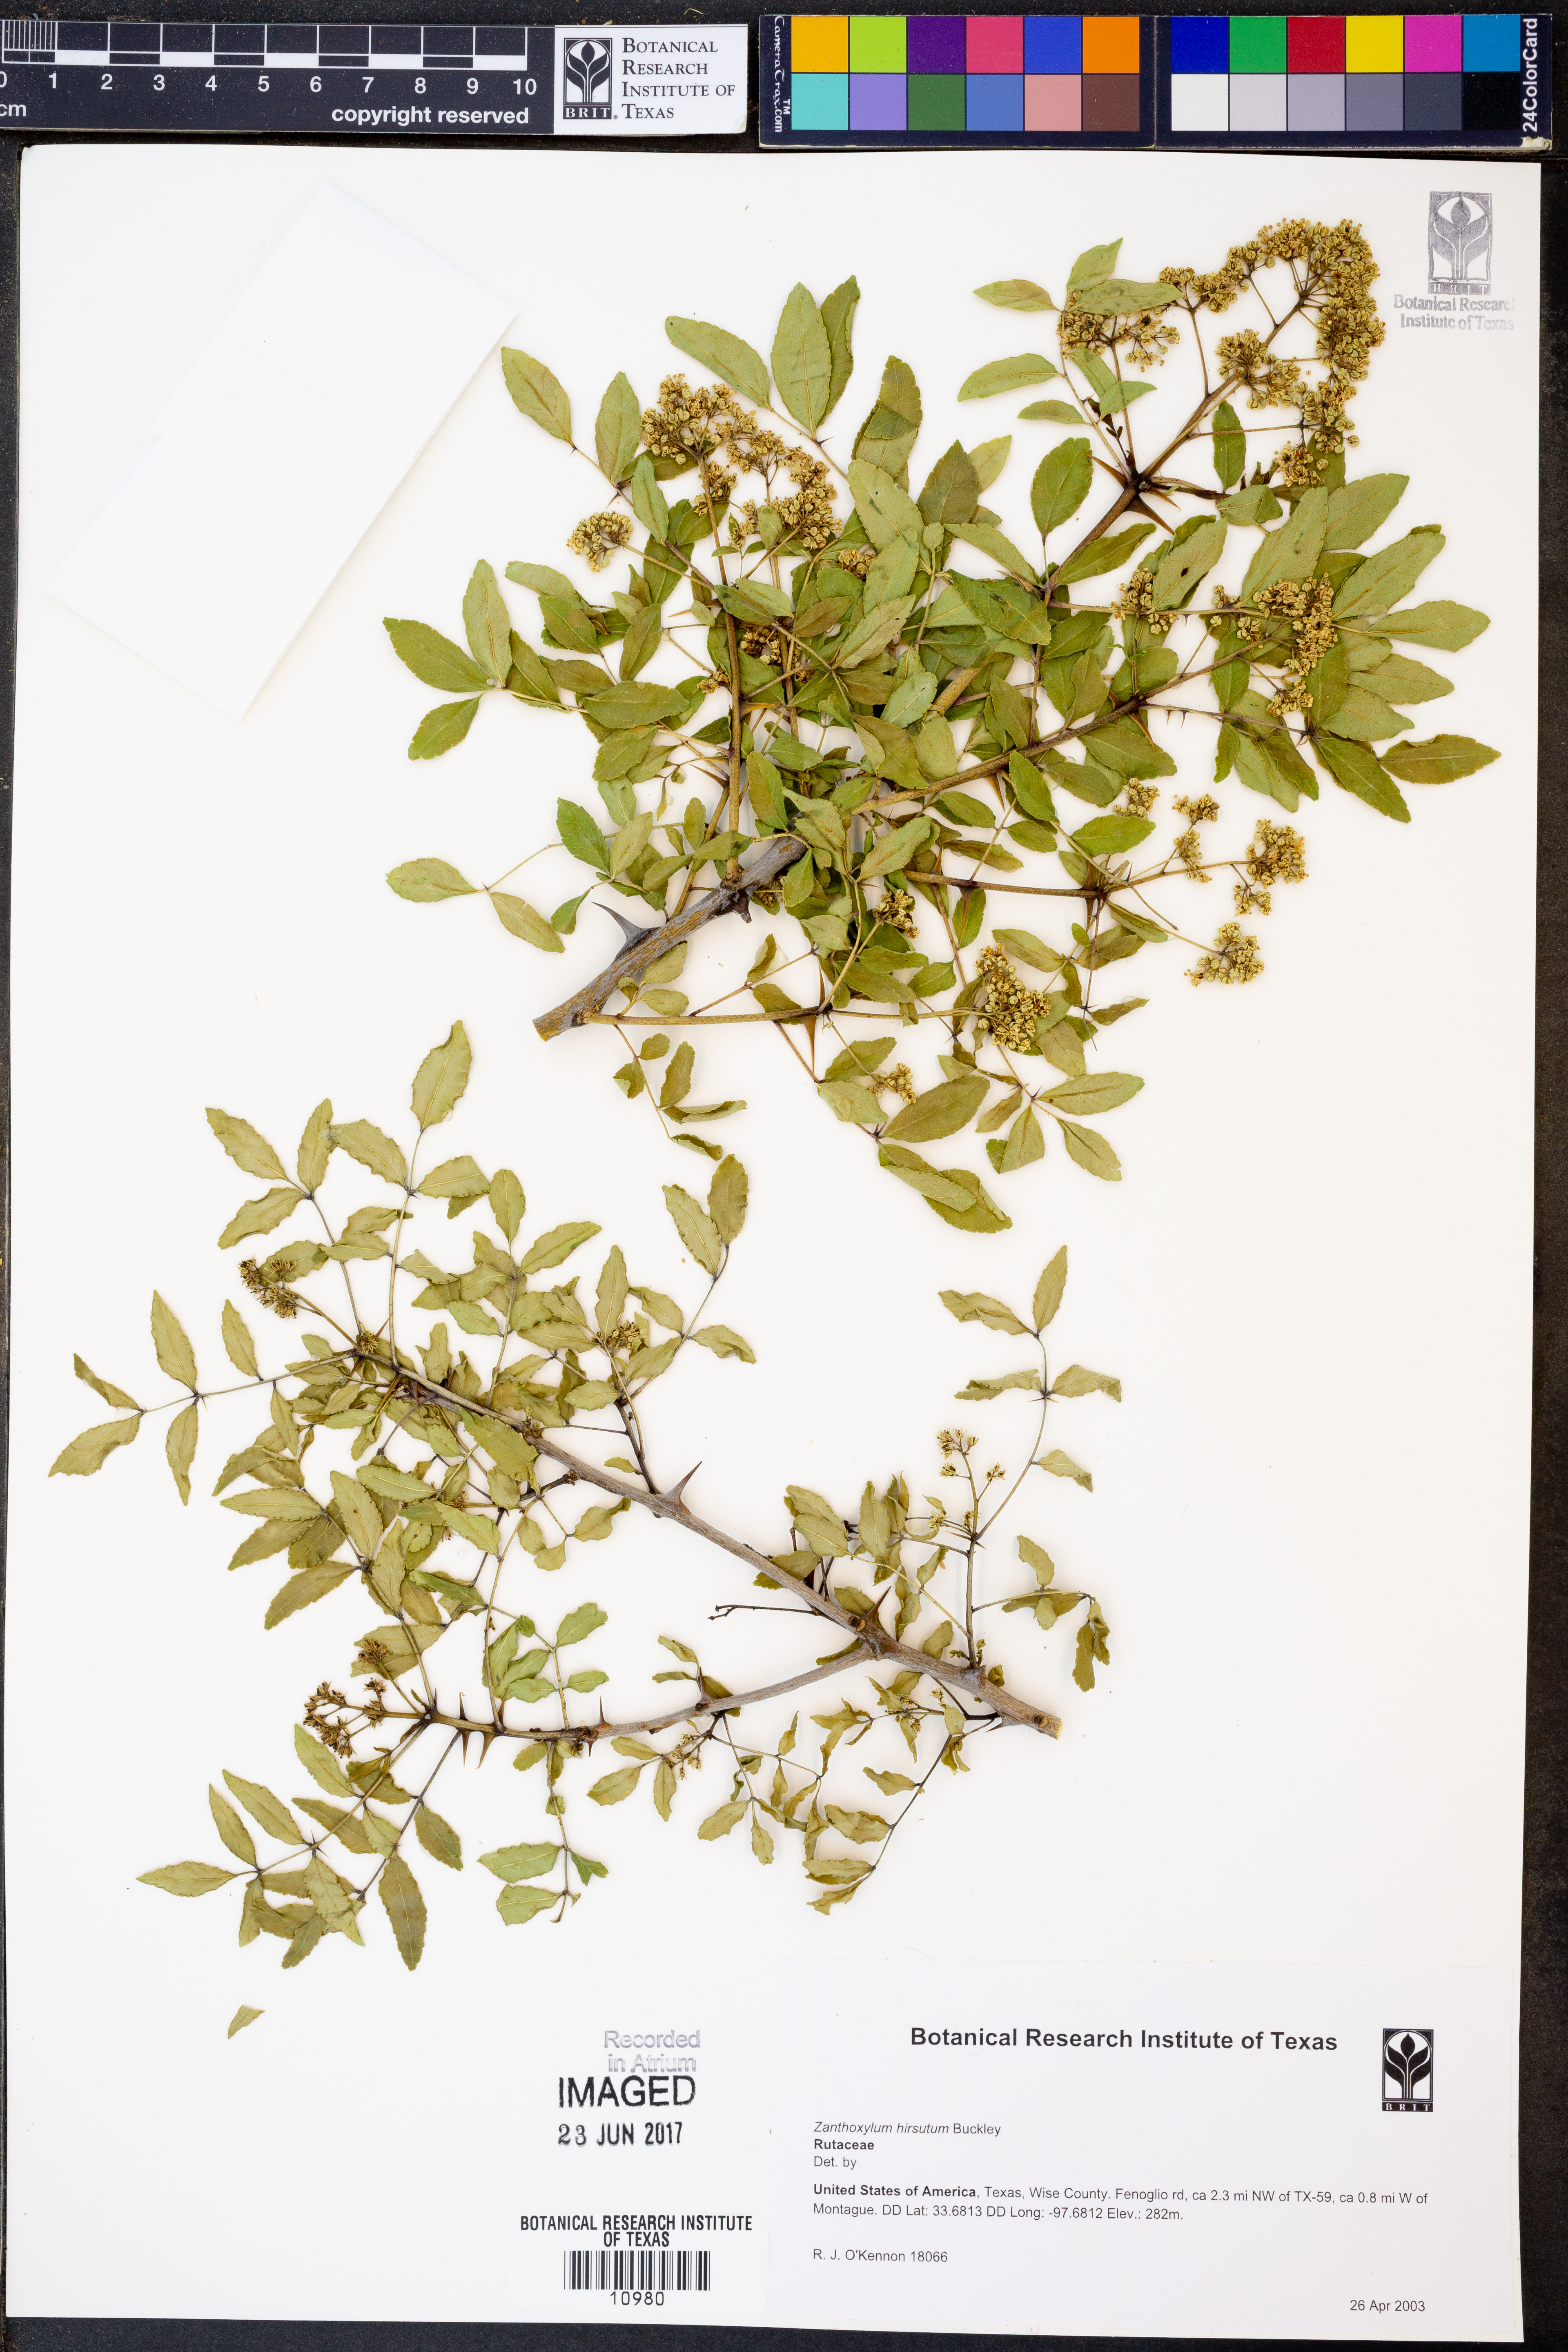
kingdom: Plantae
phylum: Tracheophyta
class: Magnoliopsida
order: Sapindales
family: Rutaceae
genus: Zanthoxylum
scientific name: Zanthoxylum clava-herculis
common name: Hercules'-club
